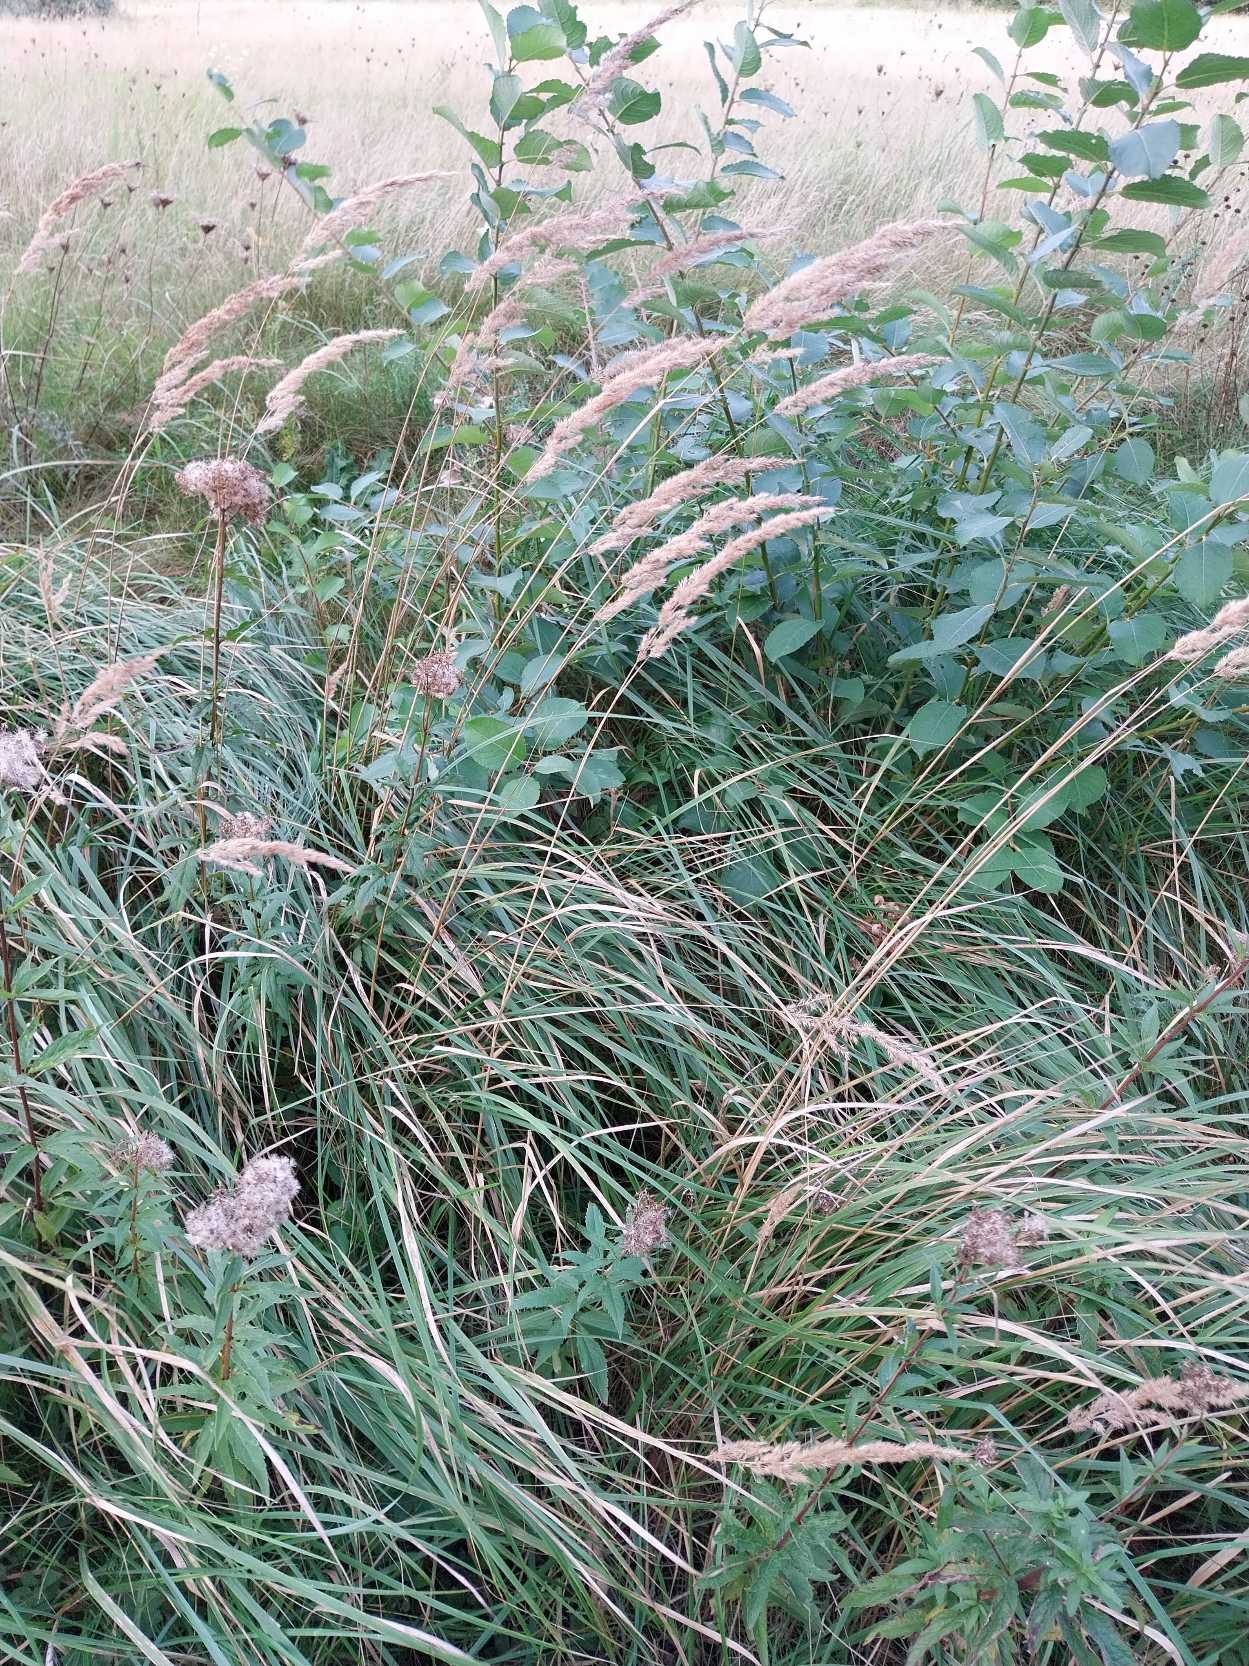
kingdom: Plantae
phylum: Tracheophyta
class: Liliopsida
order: Poales
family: Poaceae
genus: Calamagrostis
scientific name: Calamagrostis epigejos
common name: Bjerg-rørhvene
